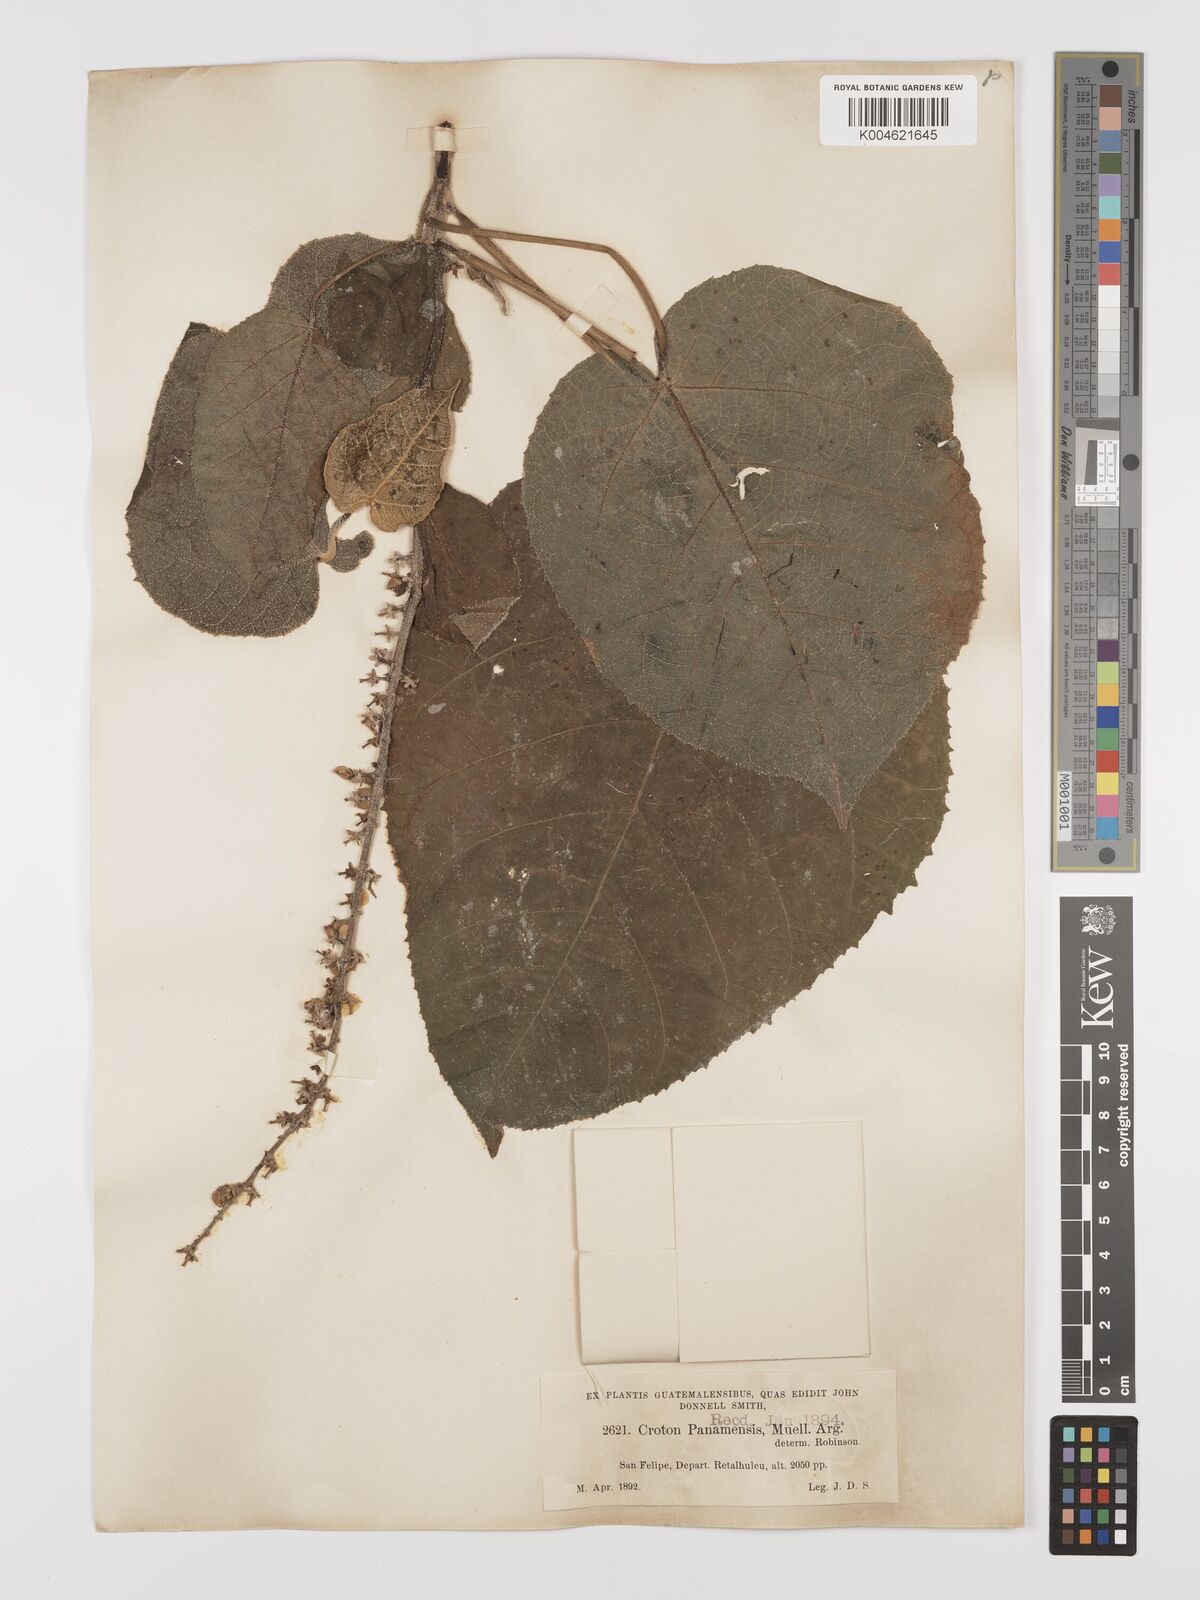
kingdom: Plantae
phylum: Tracheophyta
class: Magnoliopsida
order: Malpighiales
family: Euphorbiaceae
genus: Croton
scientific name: Croton draco
